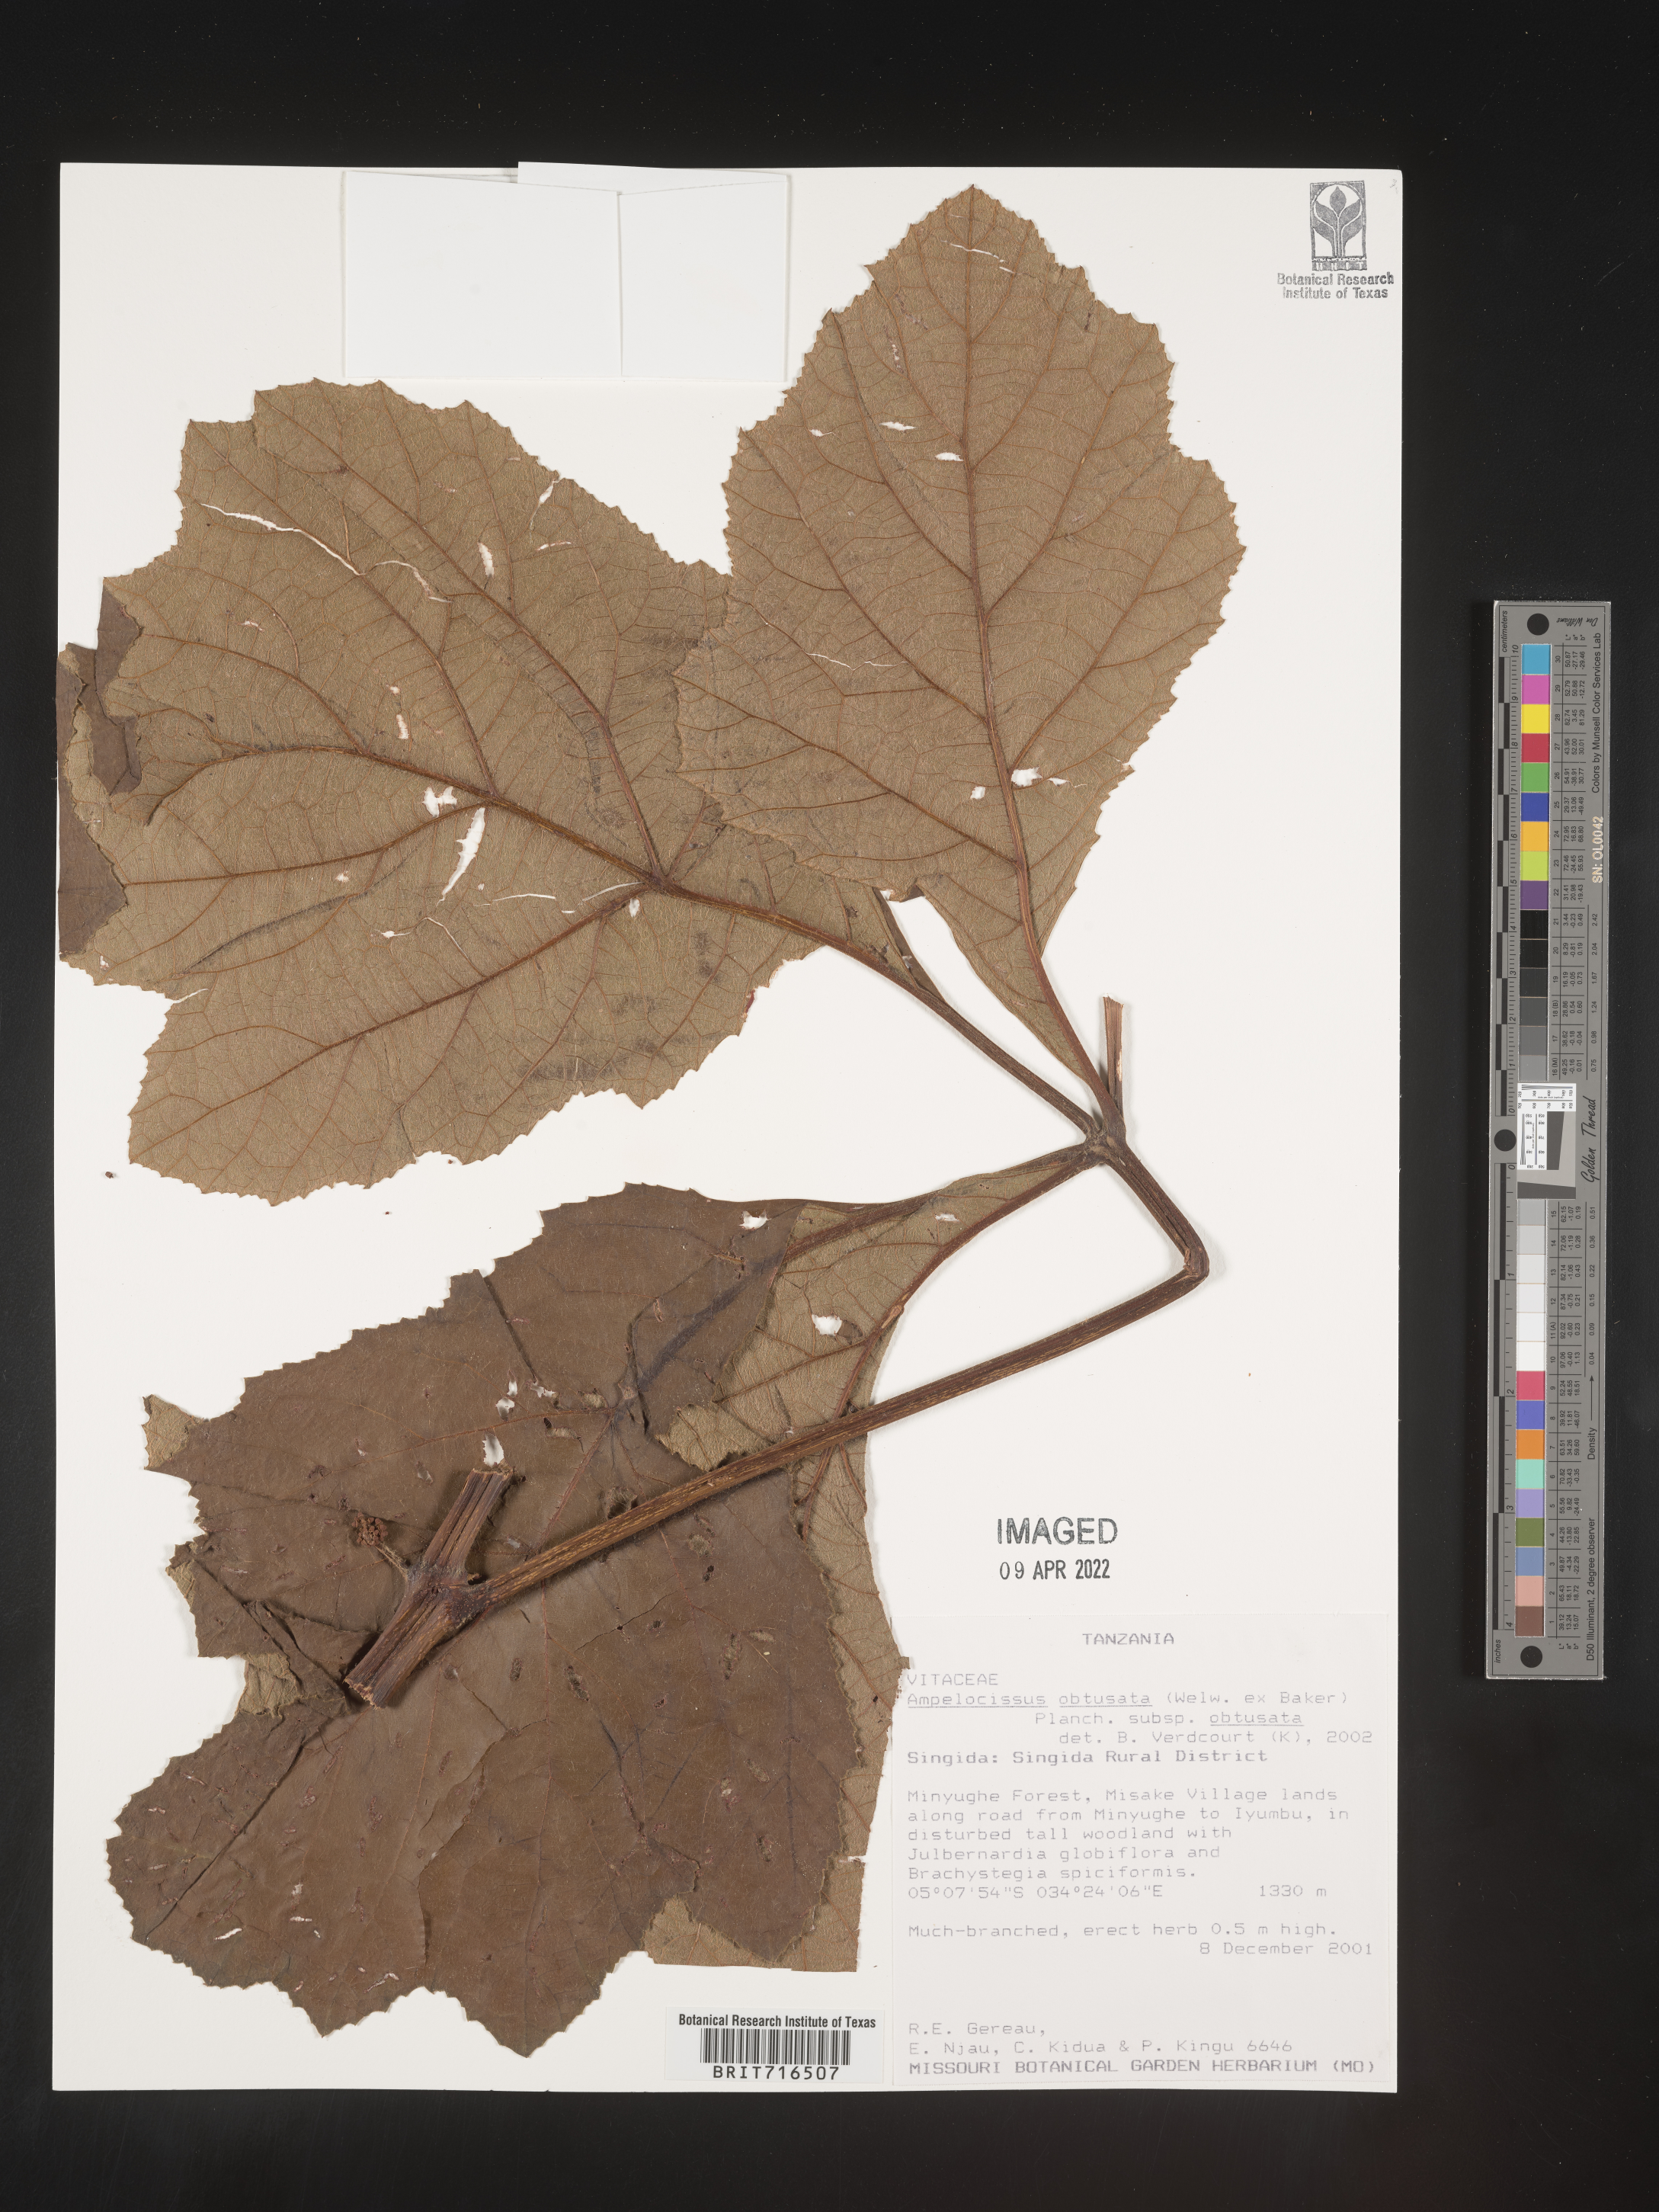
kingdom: Plantae
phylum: Tracheophyta
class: Magnoliopsida
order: Vitales
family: Vitaceae
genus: Ampelocissus
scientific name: Ampelocissus
